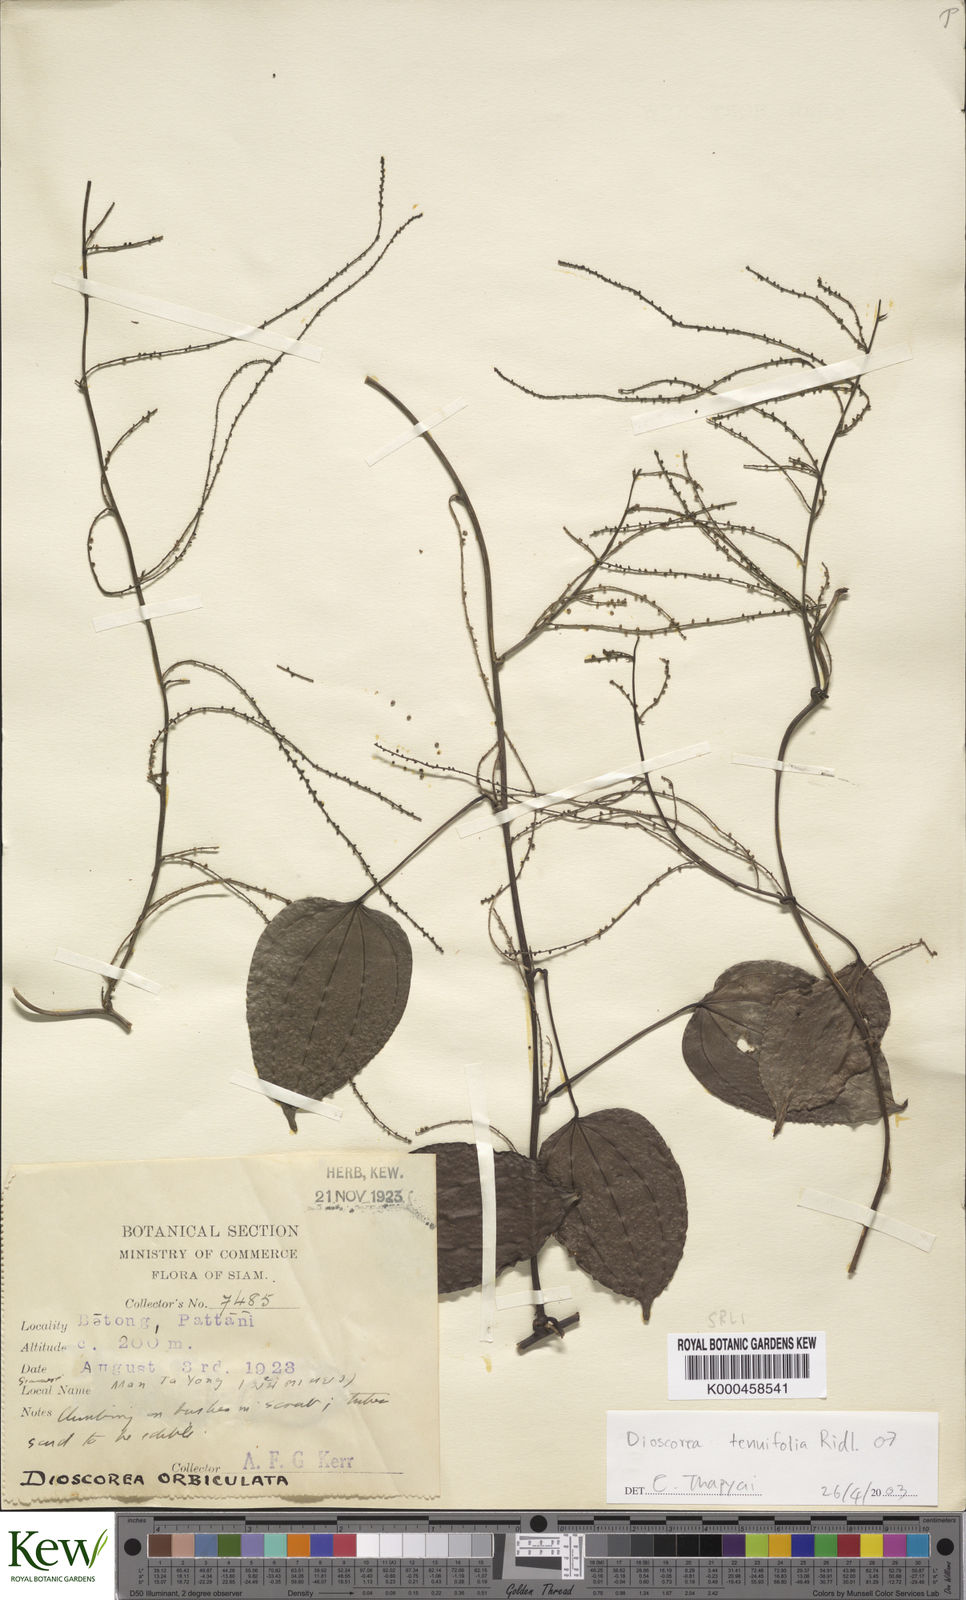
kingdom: Plantae
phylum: Tracheophyta
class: Liliopsida
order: Dioscoreales
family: Dioscoreaceae
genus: Dioscorea
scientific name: Dioscorea tenuifolia
